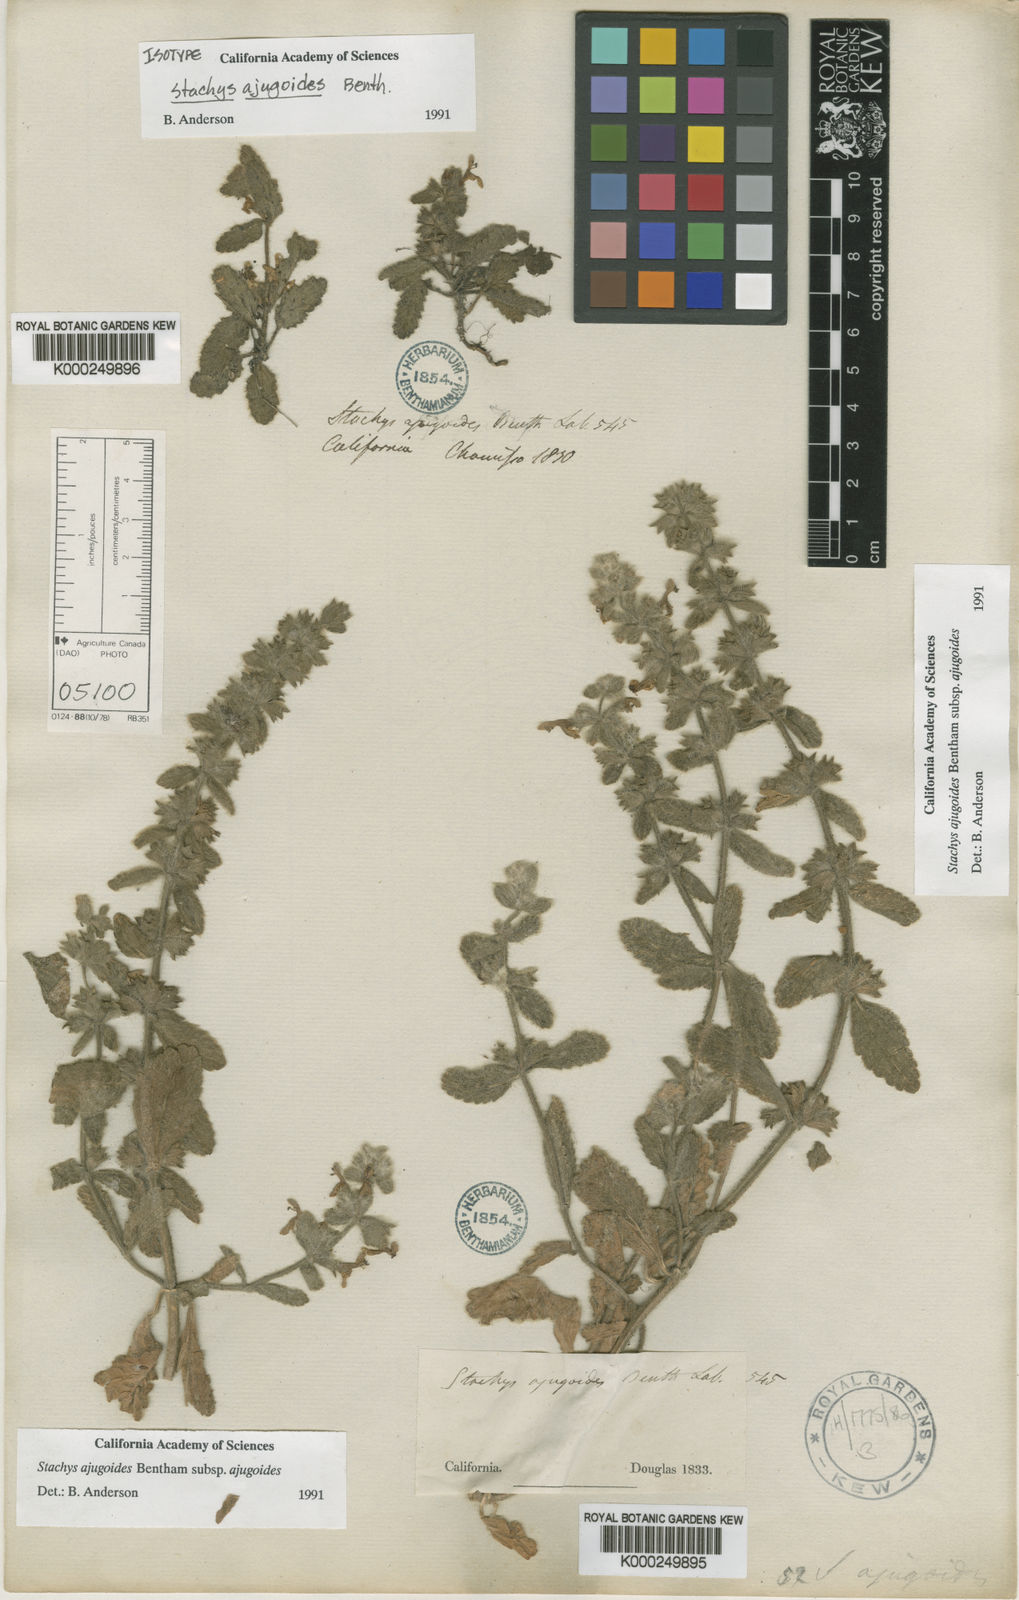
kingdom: Plantae
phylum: Tracheophyta
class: Magnoliopsida
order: Lamiales
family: Lamiaceae
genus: Stachys
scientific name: Stachys arvensis
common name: Field woundwort
